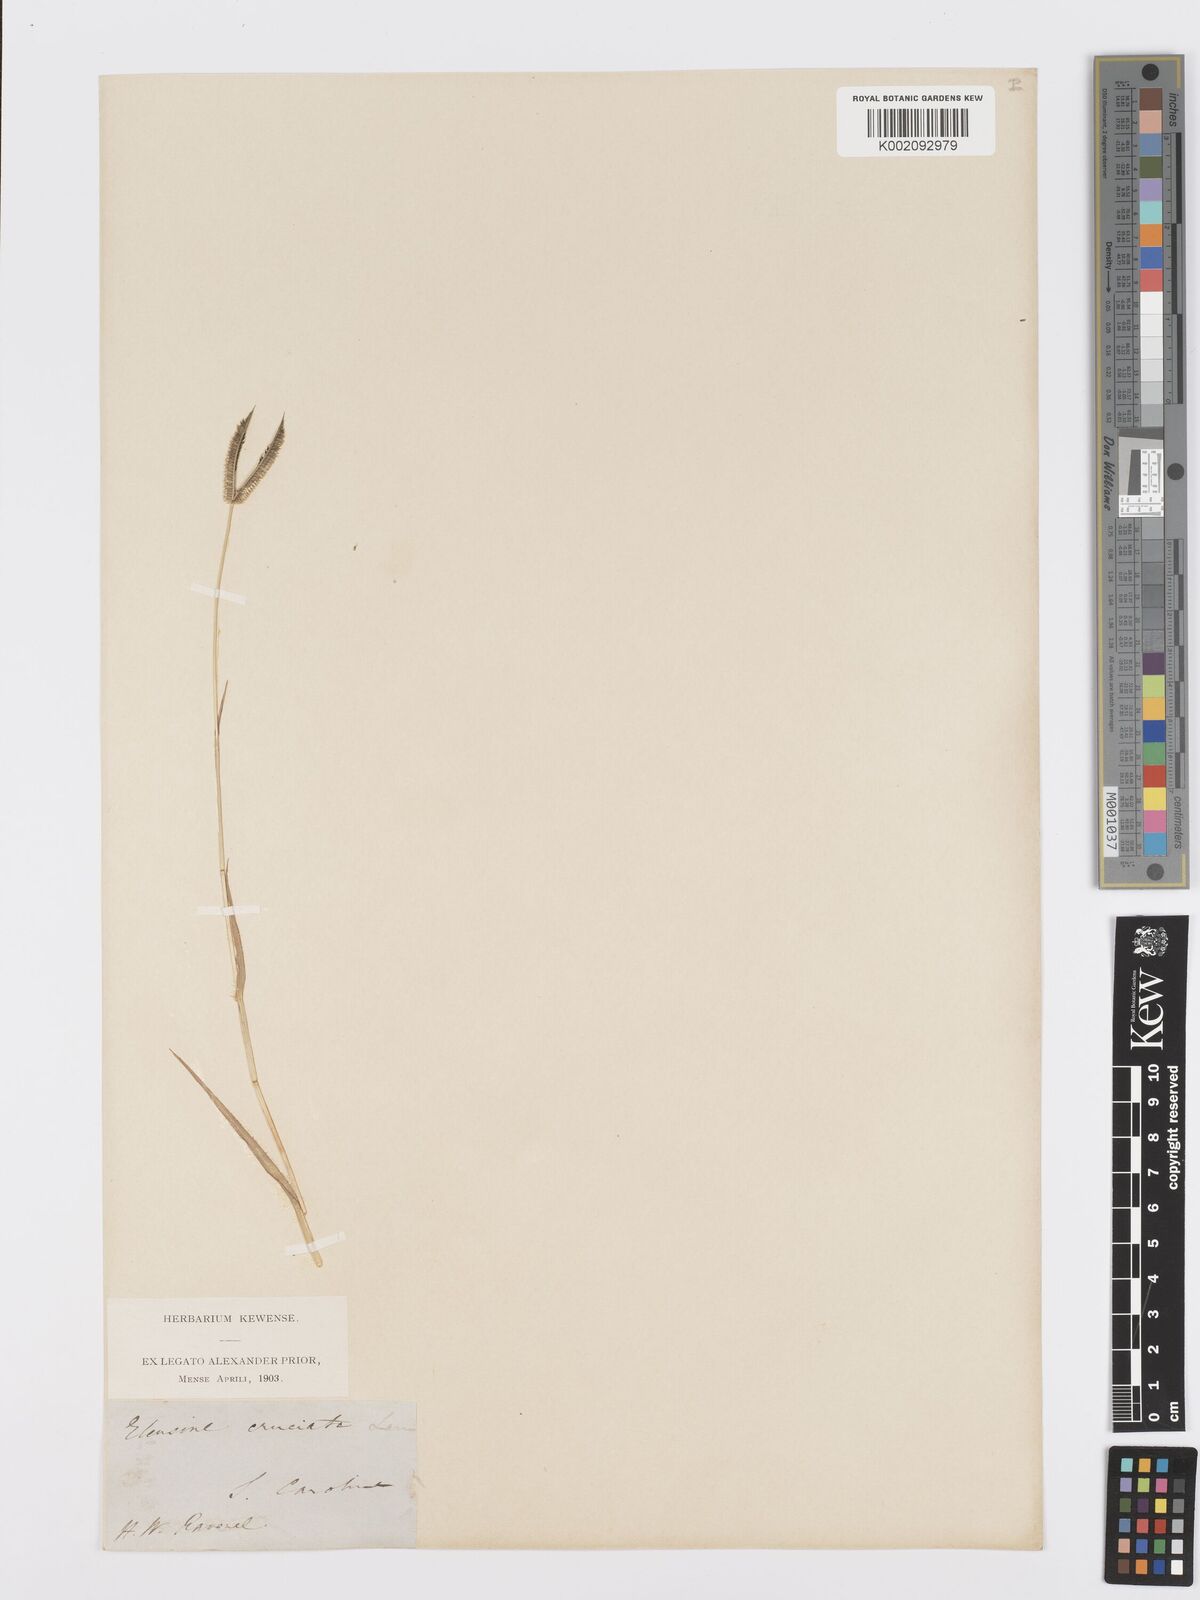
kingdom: Plantae
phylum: Tracheophyta
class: Liliopsida
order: Poales
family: Poaceae
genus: Dactyloctenium
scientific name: Dactyloctenium aegyptium
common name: Egyptian grass
